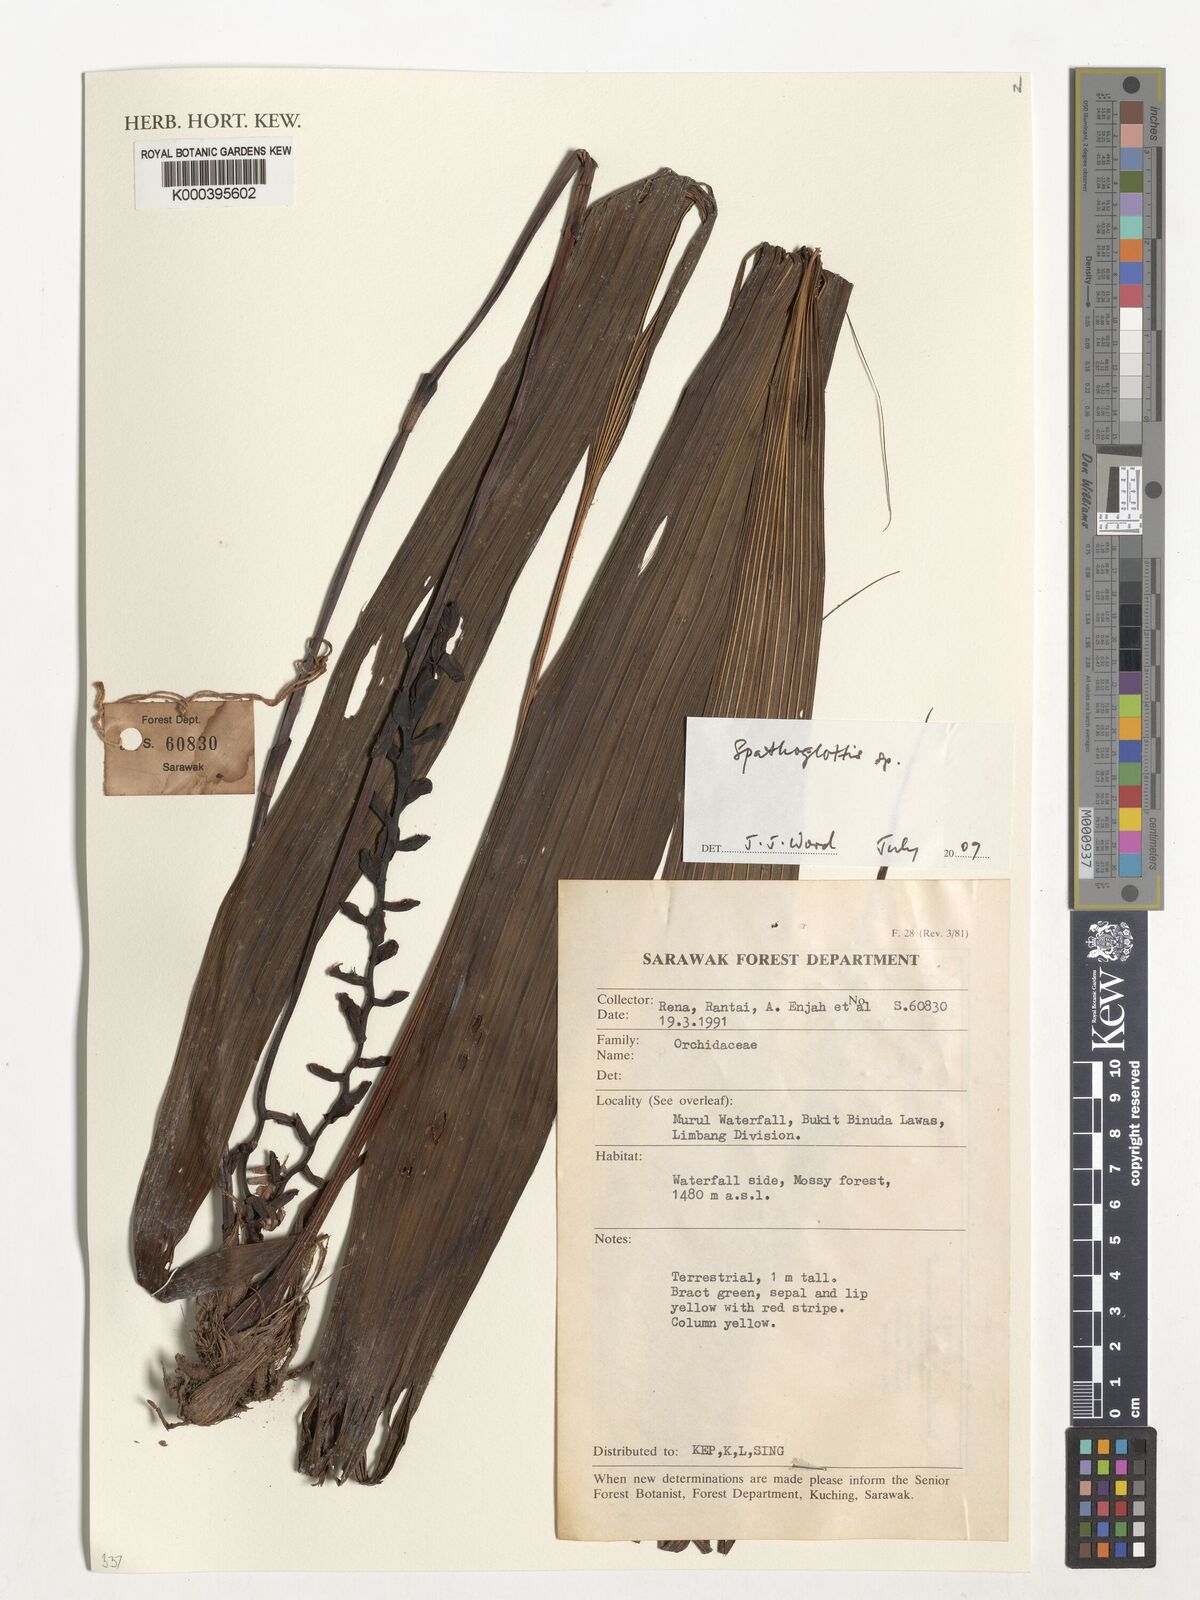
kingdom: Plantae
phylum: Tracheophyta
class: Liliopsida
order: Asparagales
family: Orchidaceae
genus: Spathoglottis
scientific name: Spathoglottis
